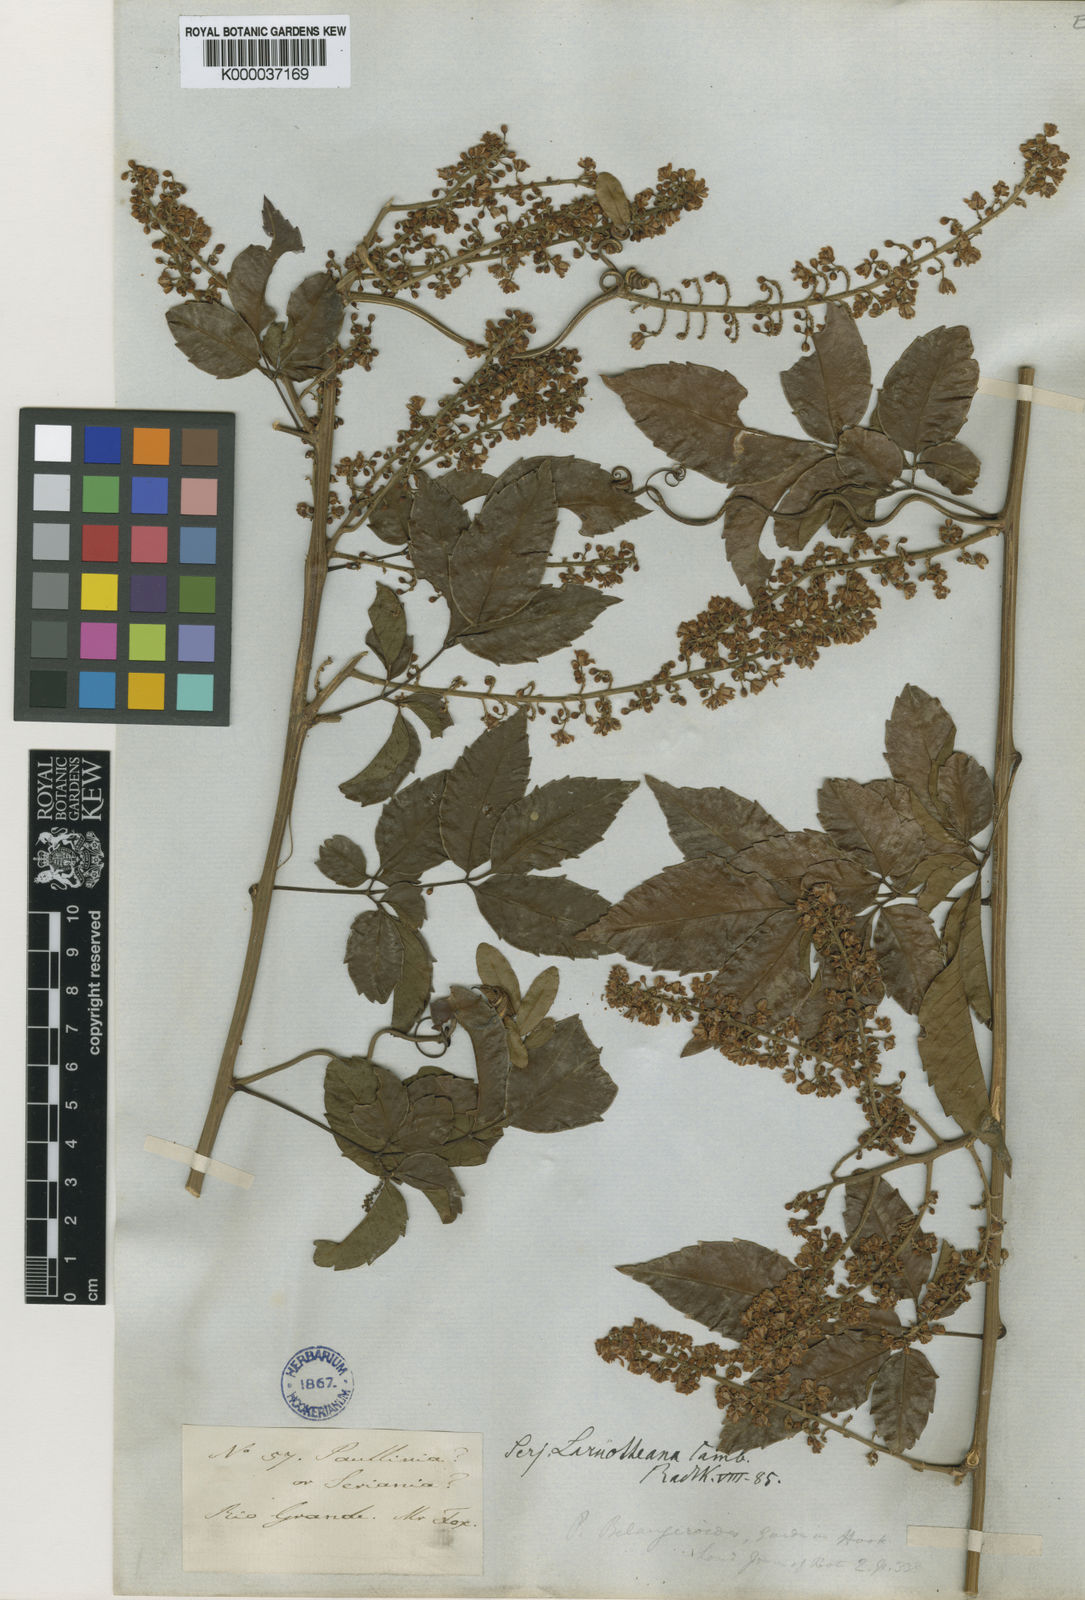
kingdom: Plantae
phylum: Tracheophyta
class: Magnoliopsida
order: Sapindales
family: Sapindaceae
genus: Serjania
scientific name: Serjania laruotteana
